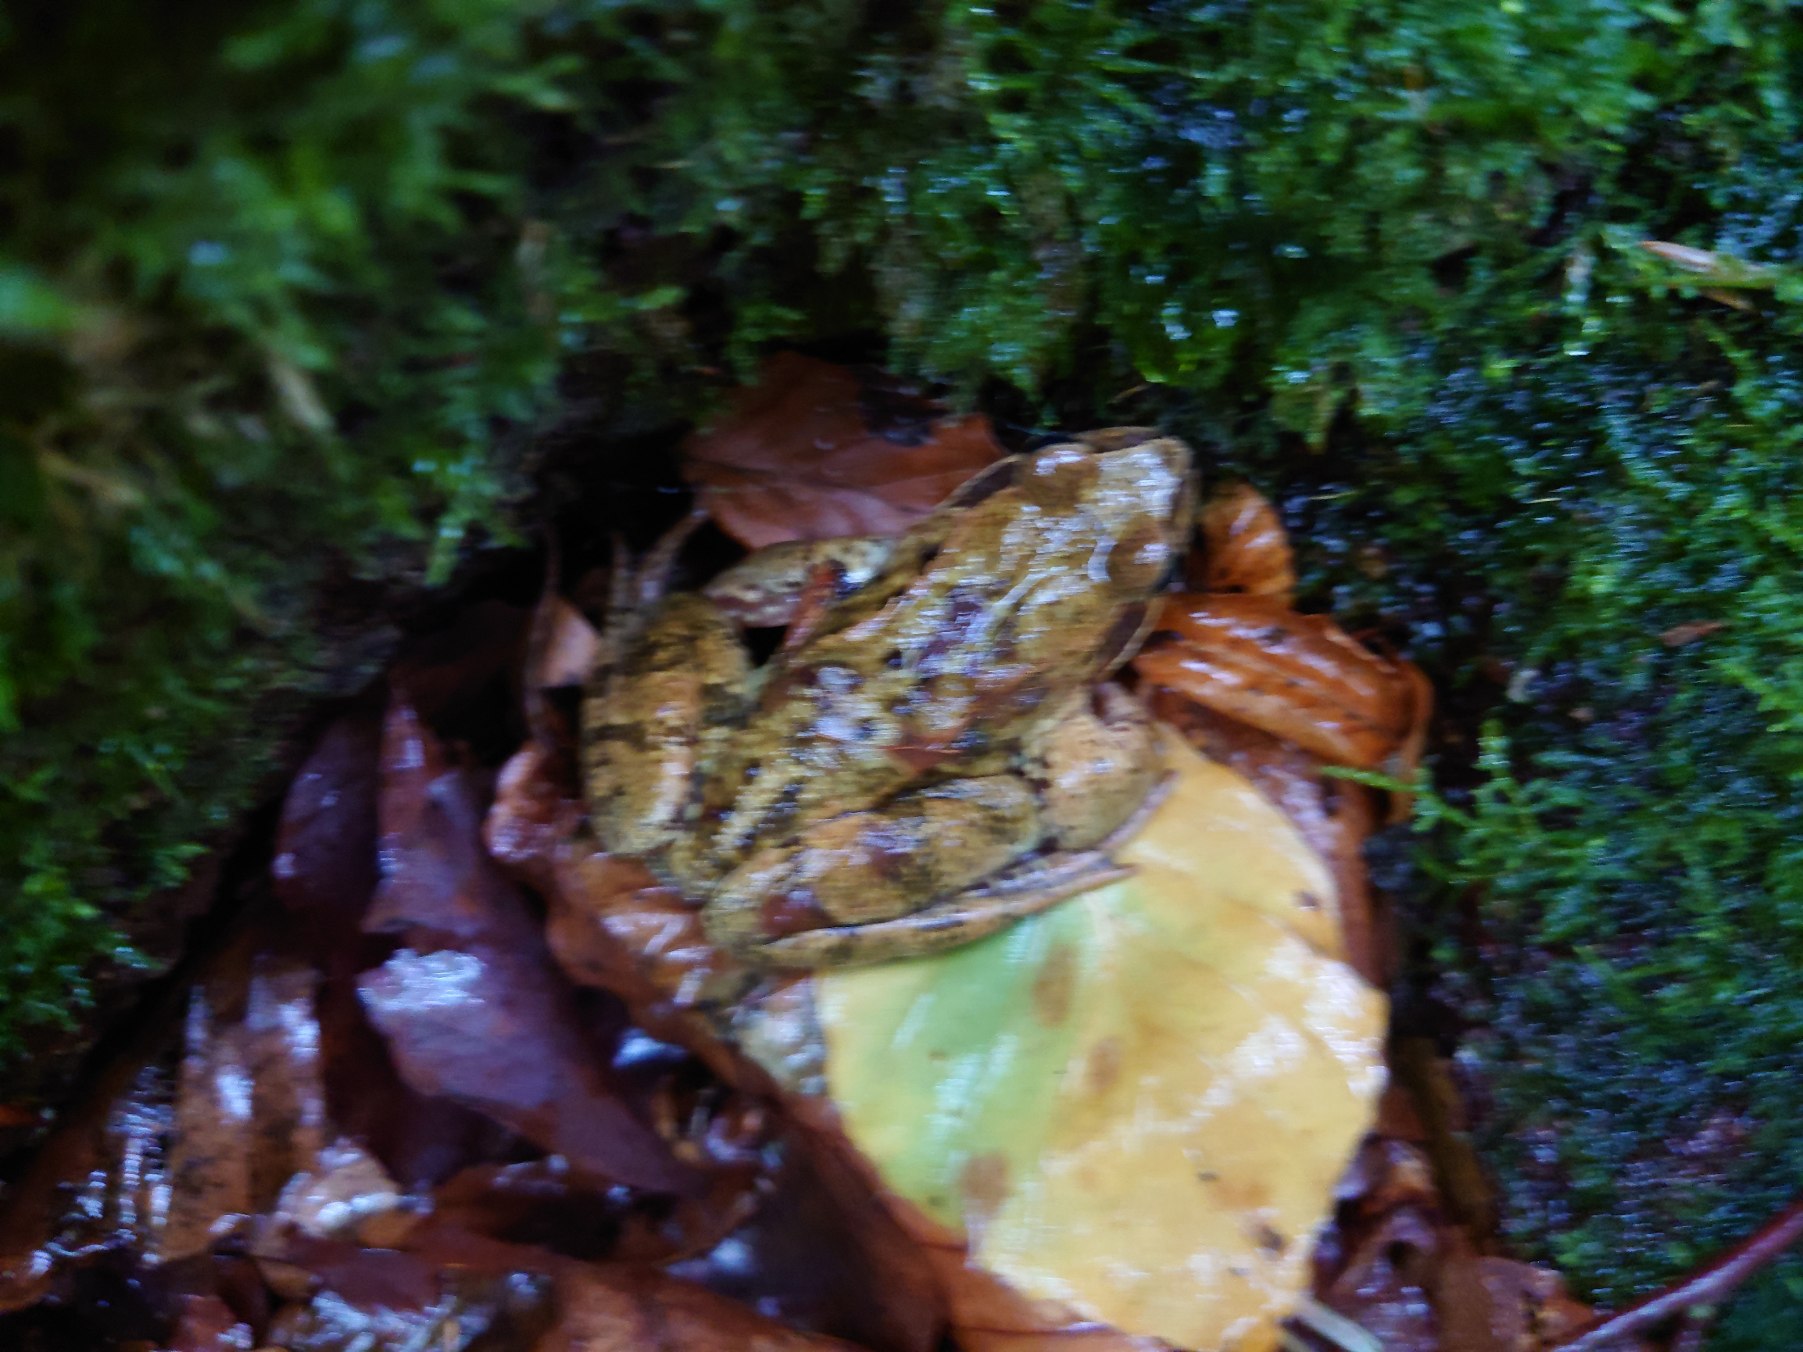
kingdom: Animalia
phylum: Chordata
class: Amphibia
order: Anura
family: Ranidae
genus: Rana
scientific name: Rana temporaria
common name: Butsnudet frø
